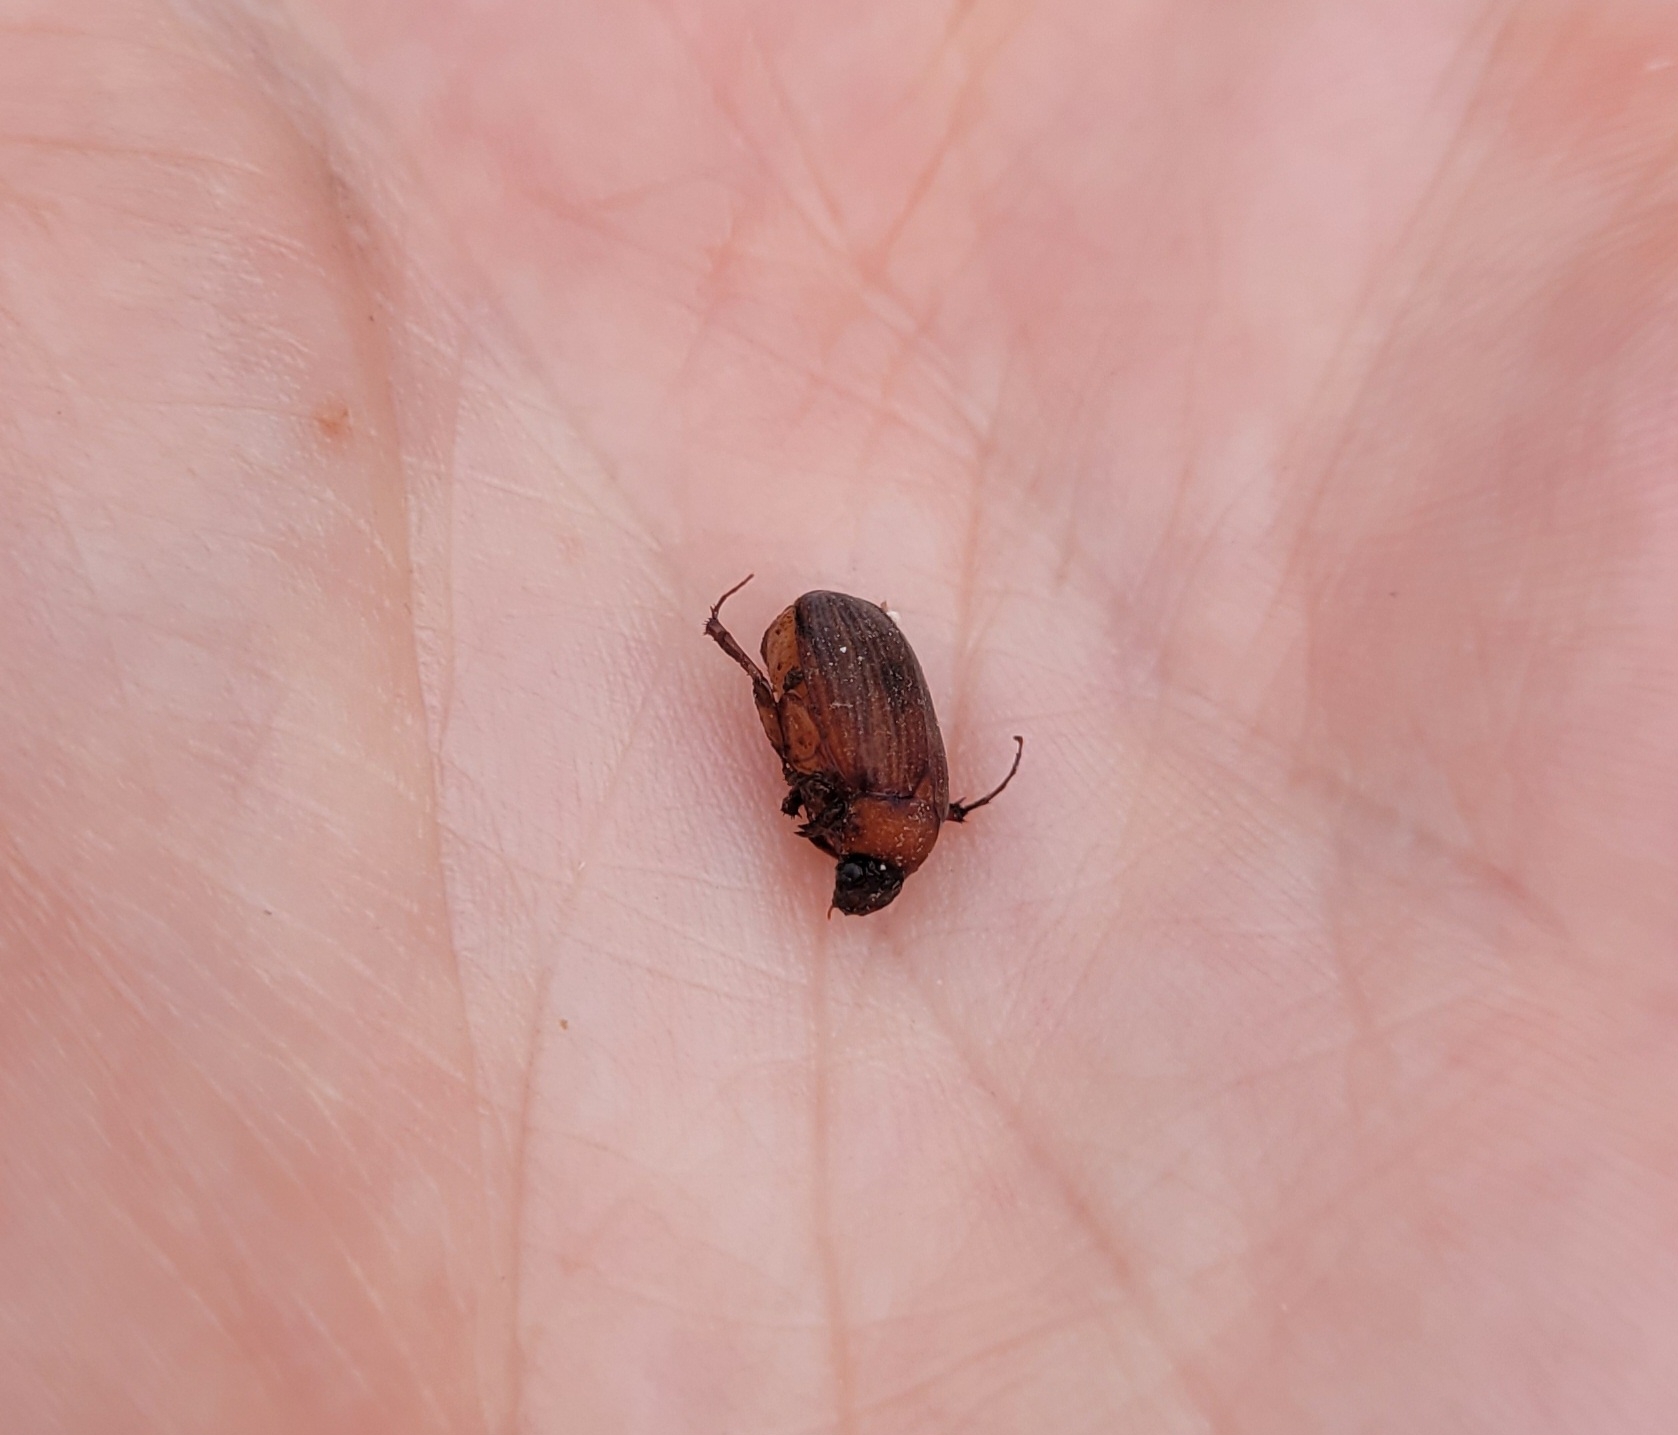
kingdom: Animalia
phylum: Arthropoda
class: Insecta
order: Coleoptera
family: Scarabaeidae
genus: Serica
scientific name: Serica brunnea
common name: Natoldenborre
